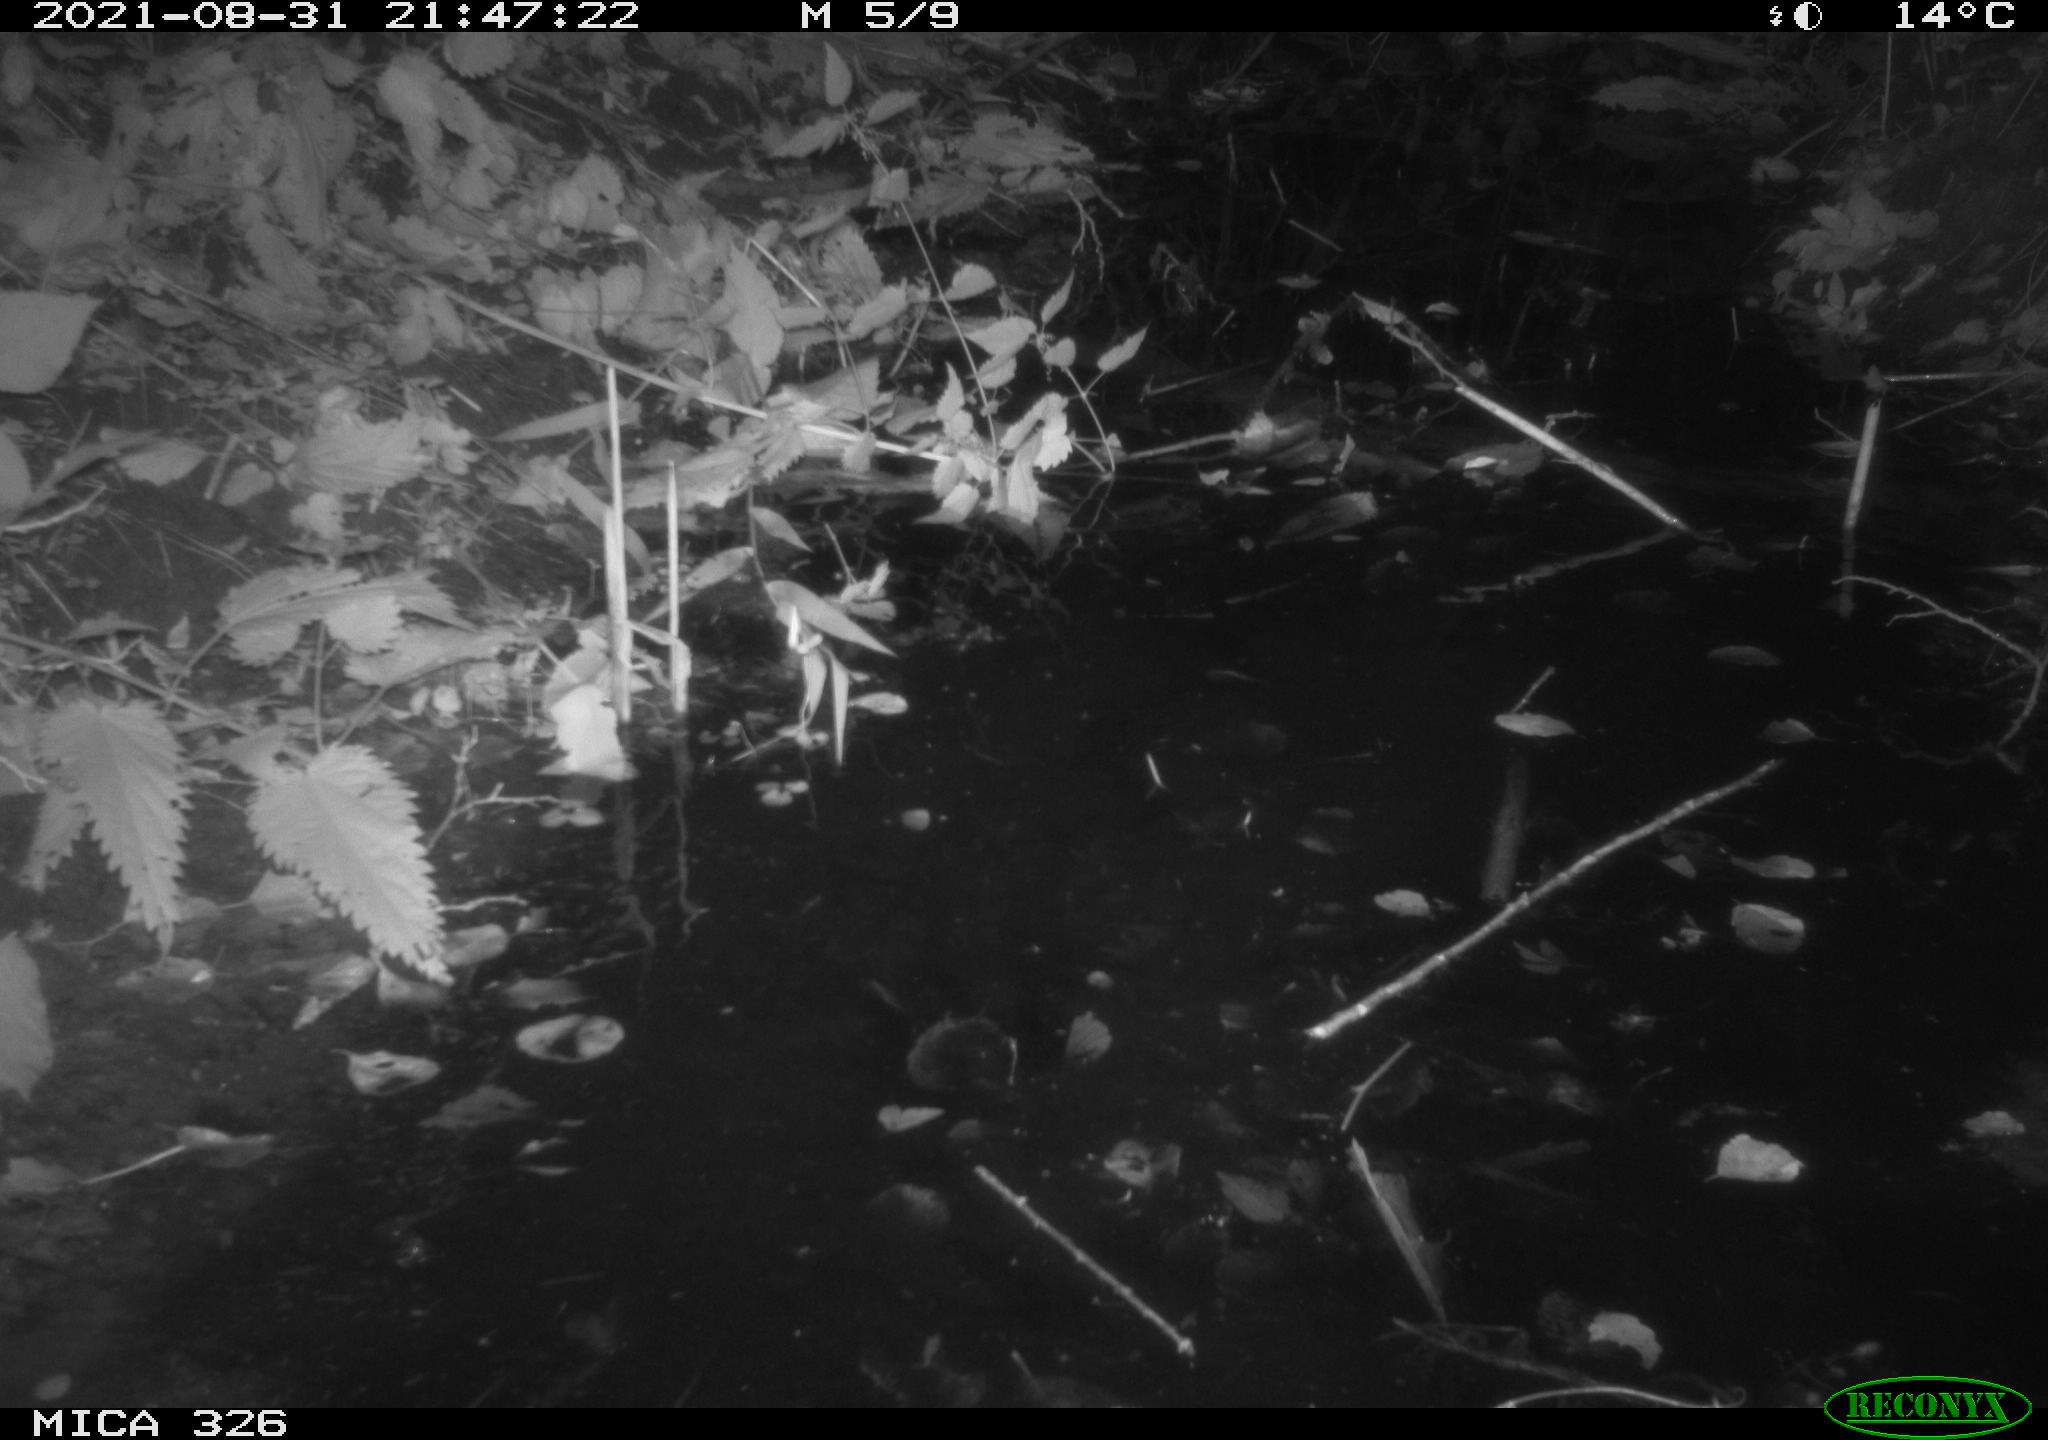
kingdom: Animalia
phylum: Chordata
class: Mammalia
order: Rodentia
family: Cricetidae
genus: Ondatra
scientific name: Ondatra zibethicus
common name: Muskrat
